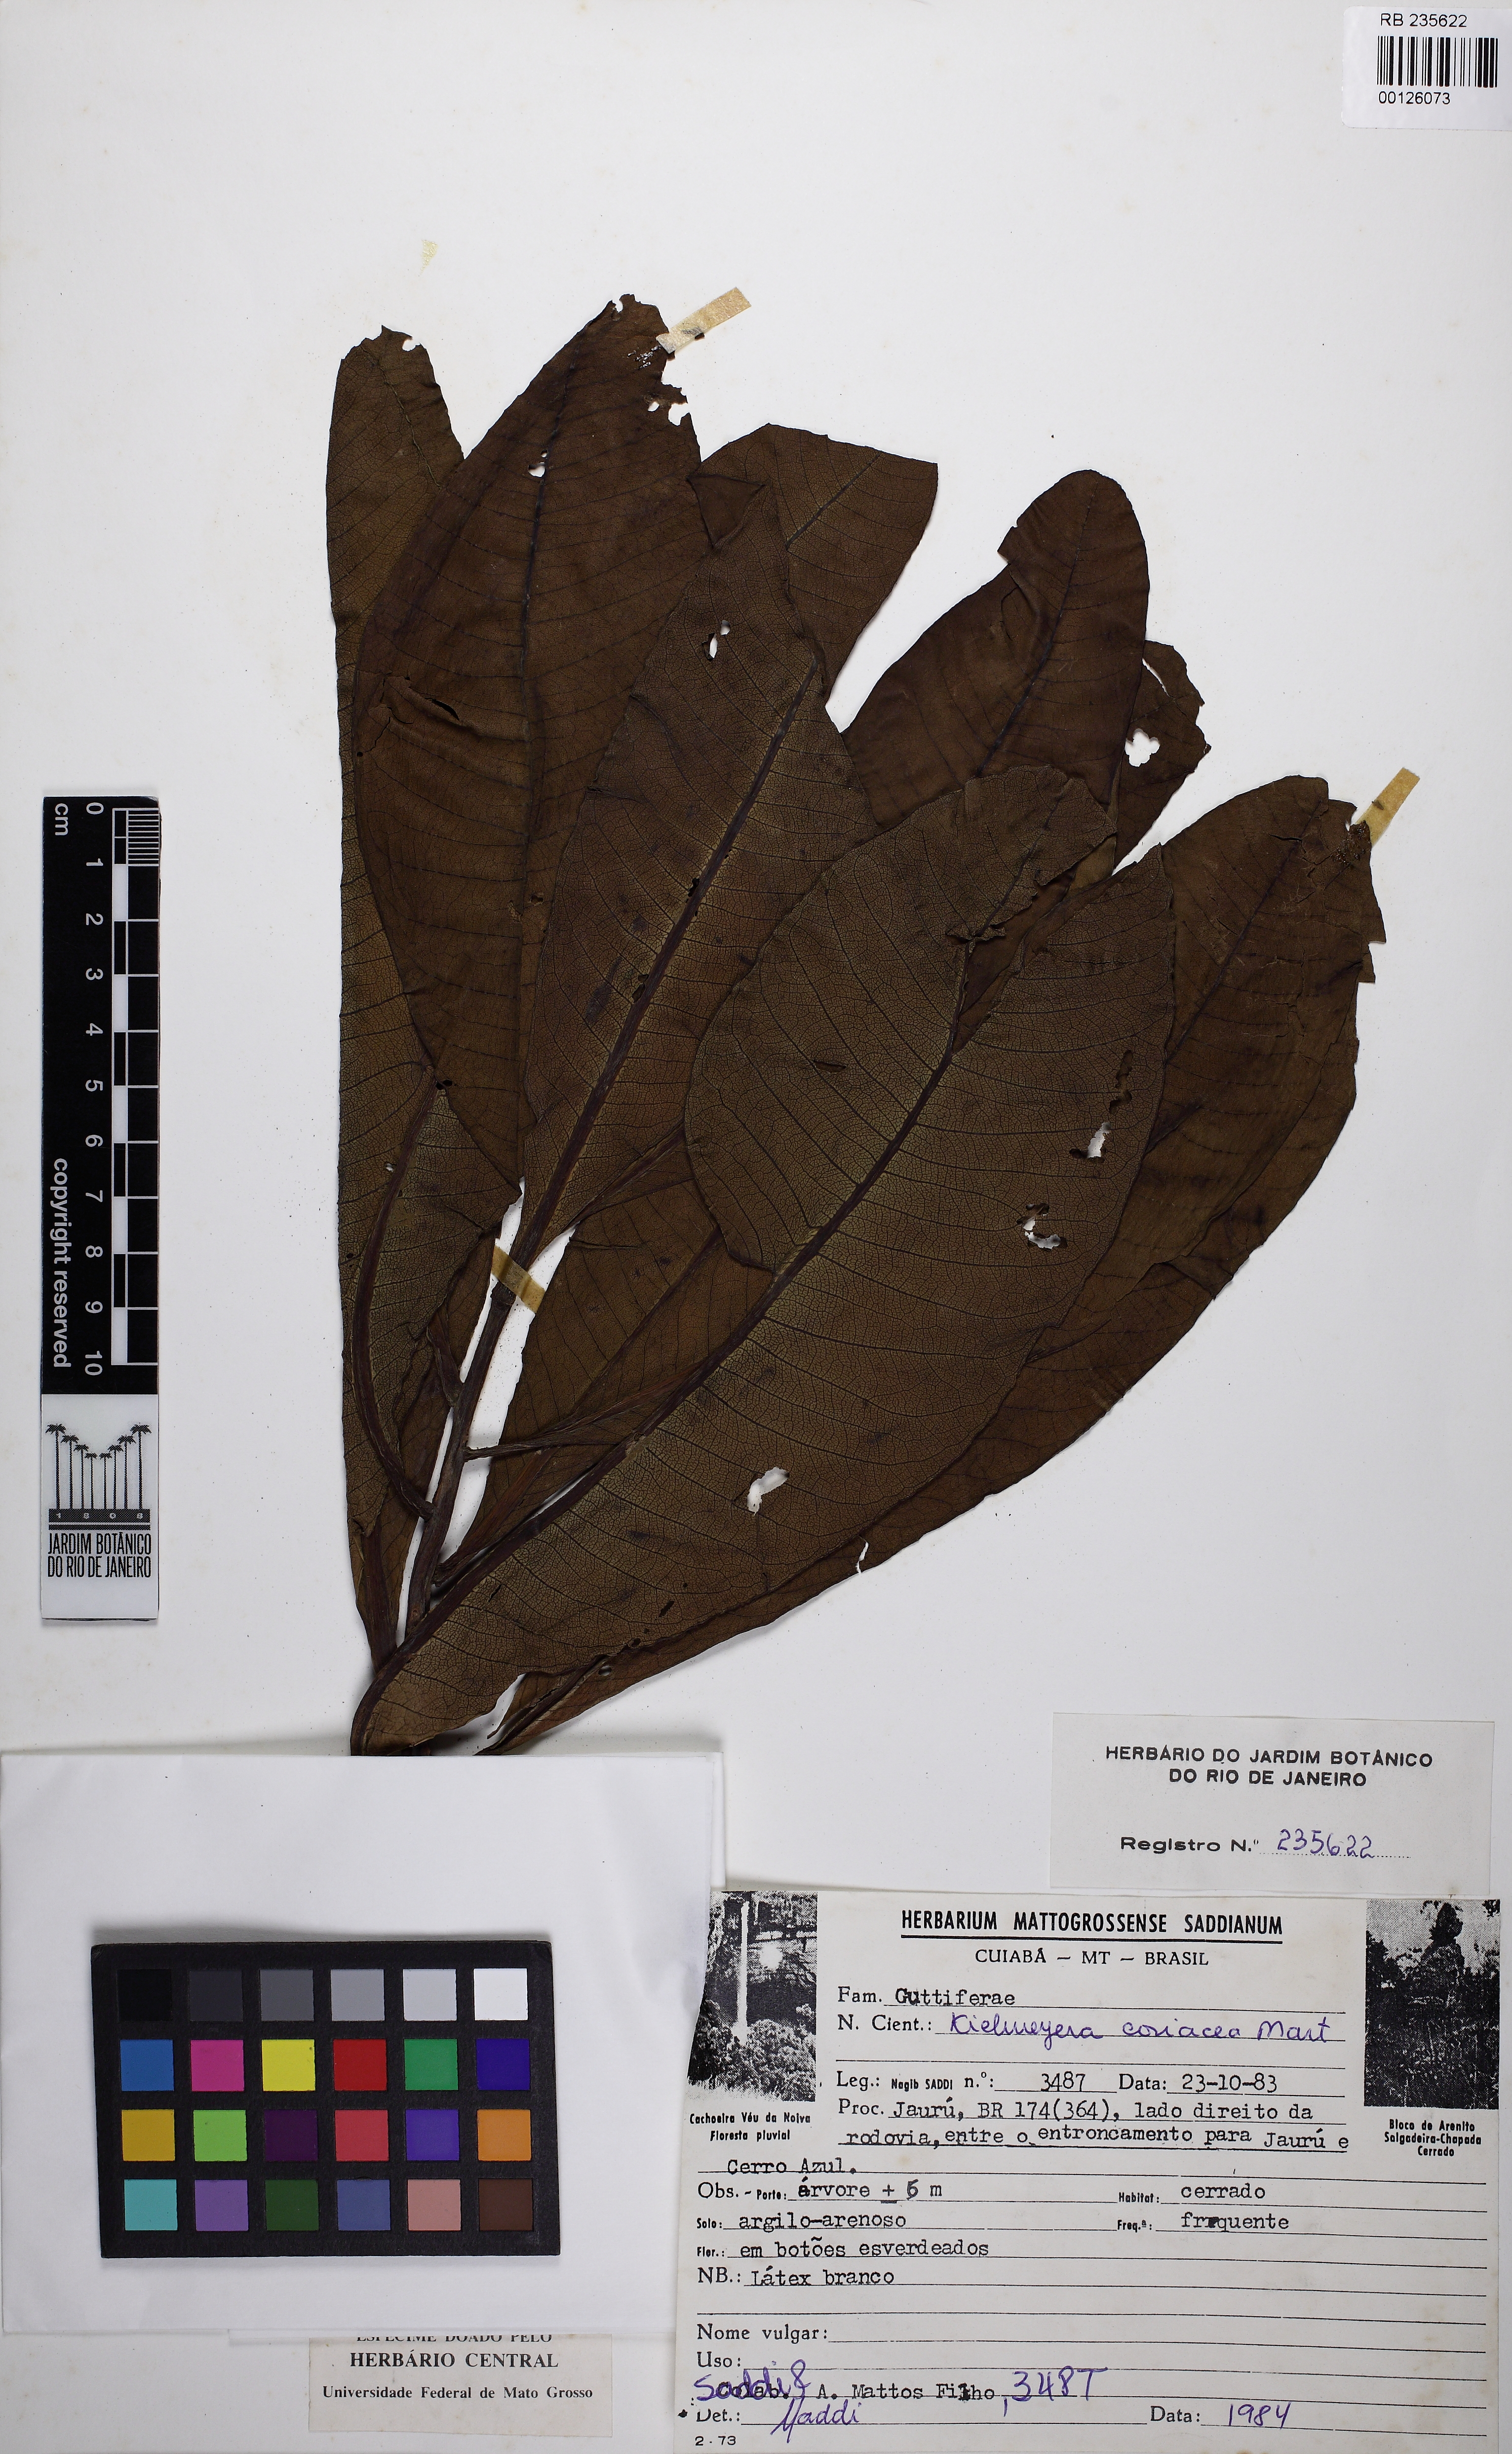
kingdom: Plantae
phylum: Tracheophyta
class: Magnoliopsida
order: Malpighiales
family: Calophyllaceae
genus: Kielmeyera
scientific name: Kielmeyera coriacea
